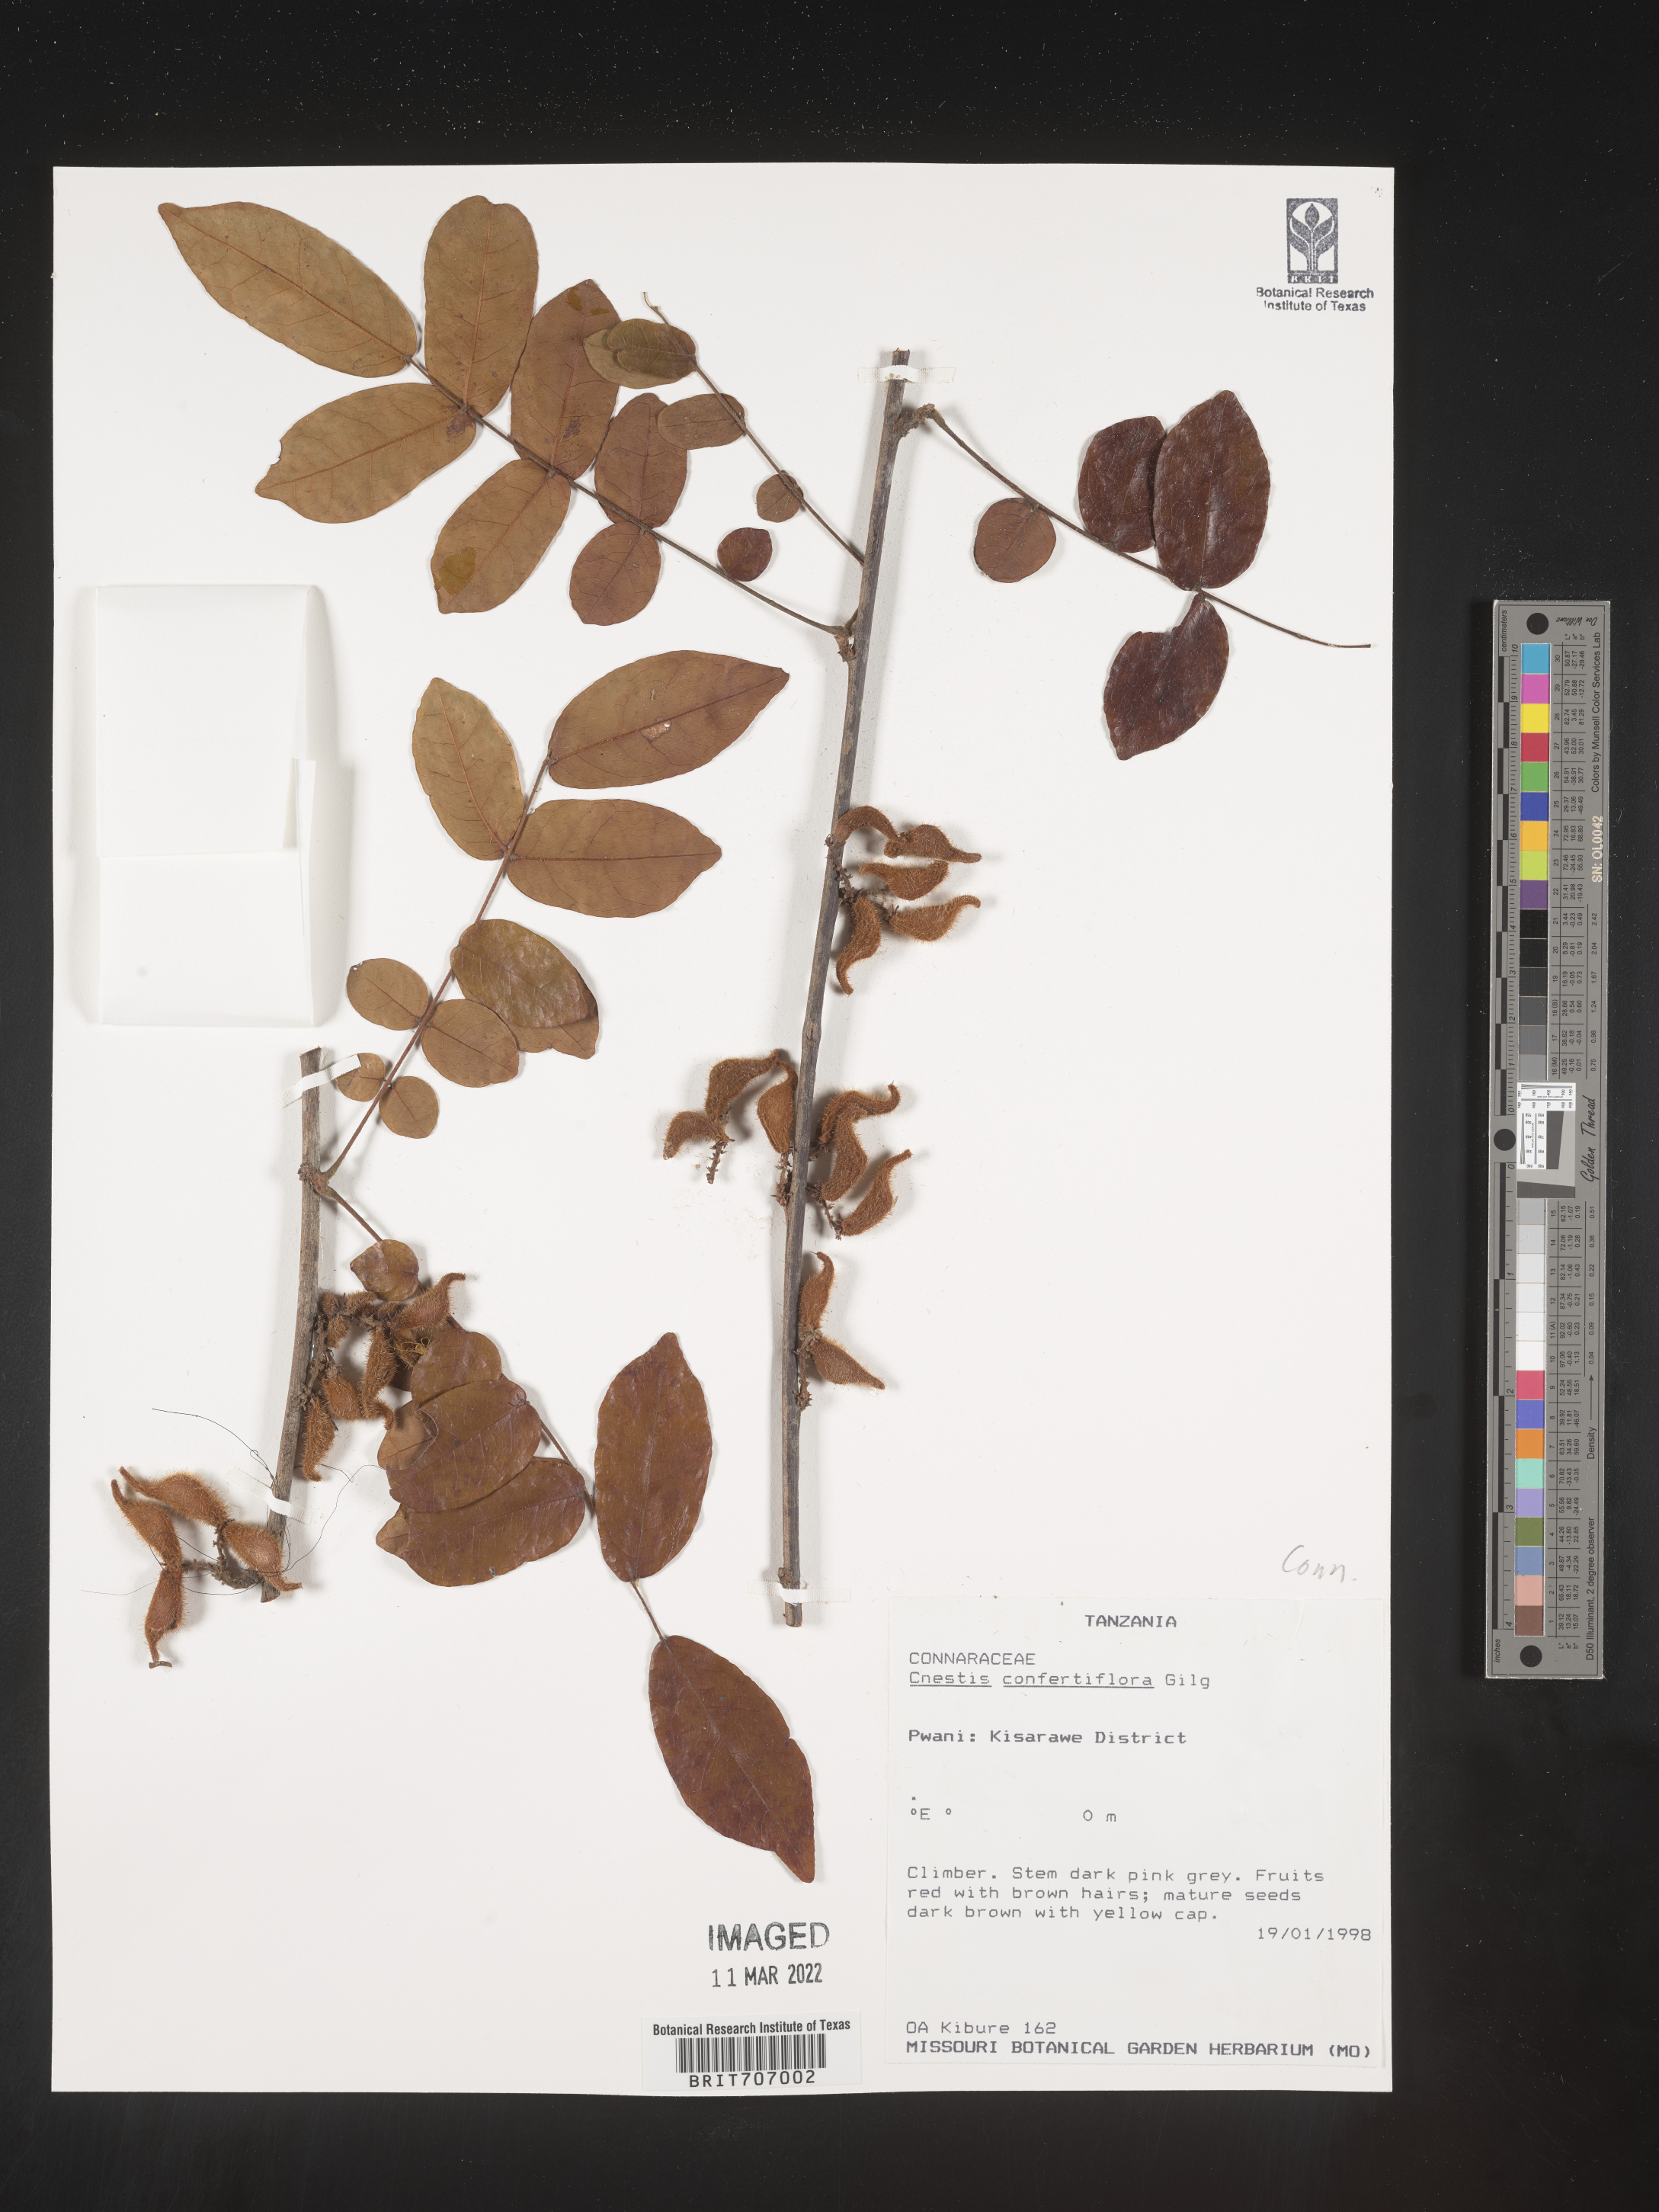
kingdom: Plantae
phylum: Tracheophyta
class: Magnoliopsida
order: Oxalidales
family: Connaraceae
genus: Cnestis
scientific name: Cnestis
